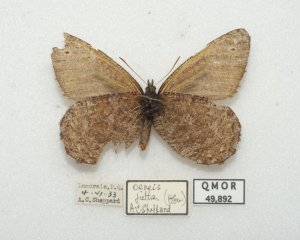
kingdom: Animalia
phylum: Arthropoda
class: Insecta
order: Lepidoptera
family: Nymphalidae
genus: Oeneis
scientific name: Oeneis jutta
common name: Jutta Arctic
